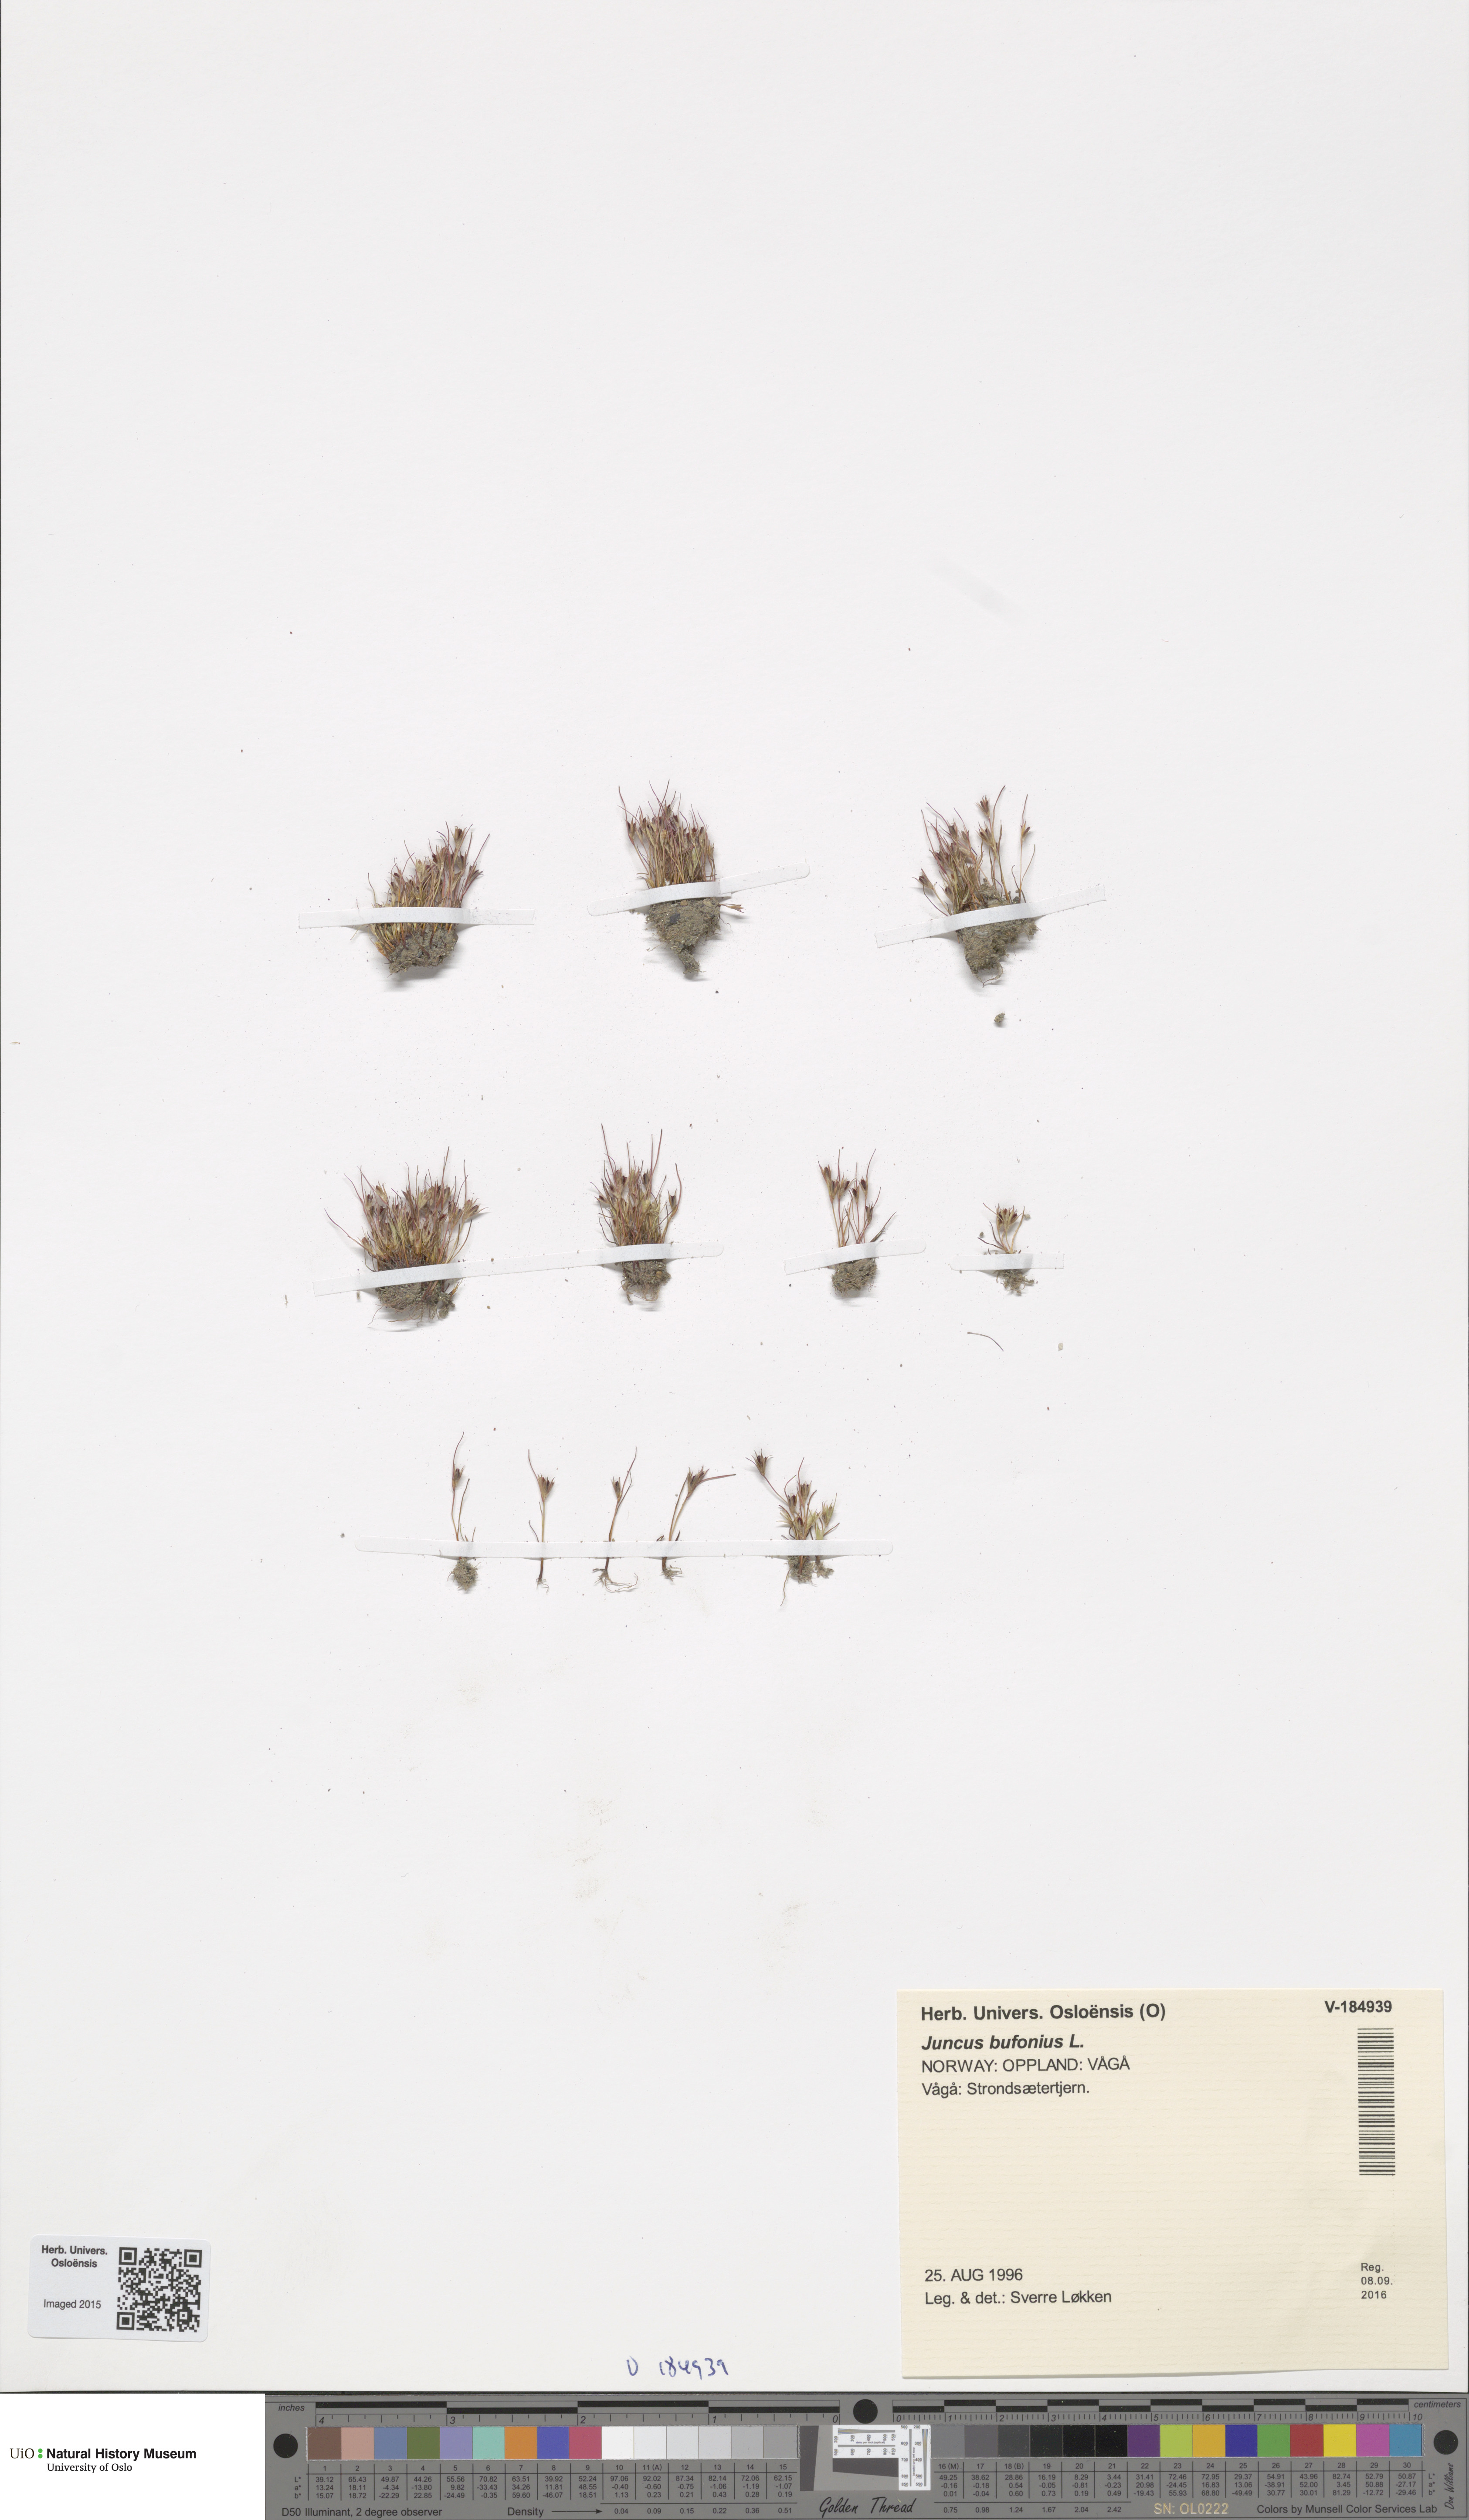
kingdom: Plantae
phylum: Tracheophyta
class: Liliopsida
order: Poales
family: Juncaceae
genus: Juncus
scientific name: Juncus bufonius
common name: Toad rush
